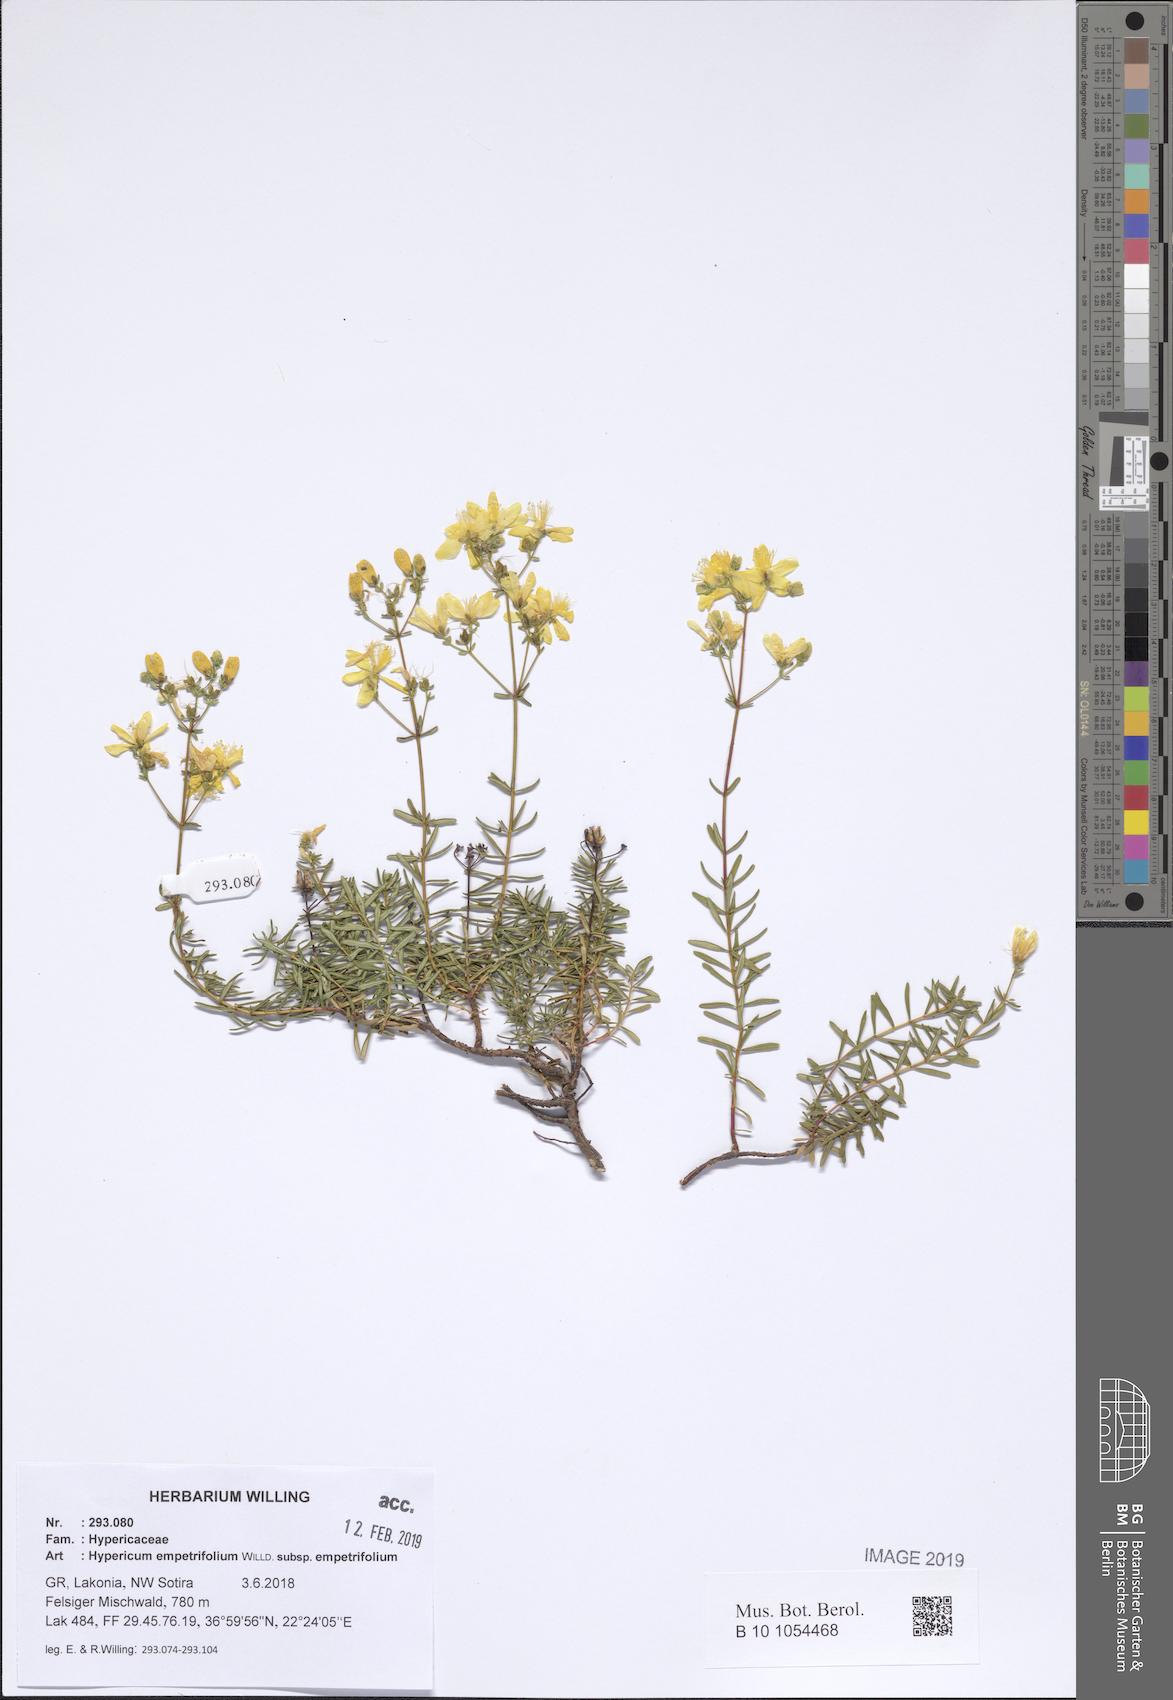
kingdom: Plantae
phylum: Tracheophyta
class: Magnoliopsida
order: Malpighiales
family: Hypericaceae
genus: Hypericum
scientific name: Hypericum empetrifolium
